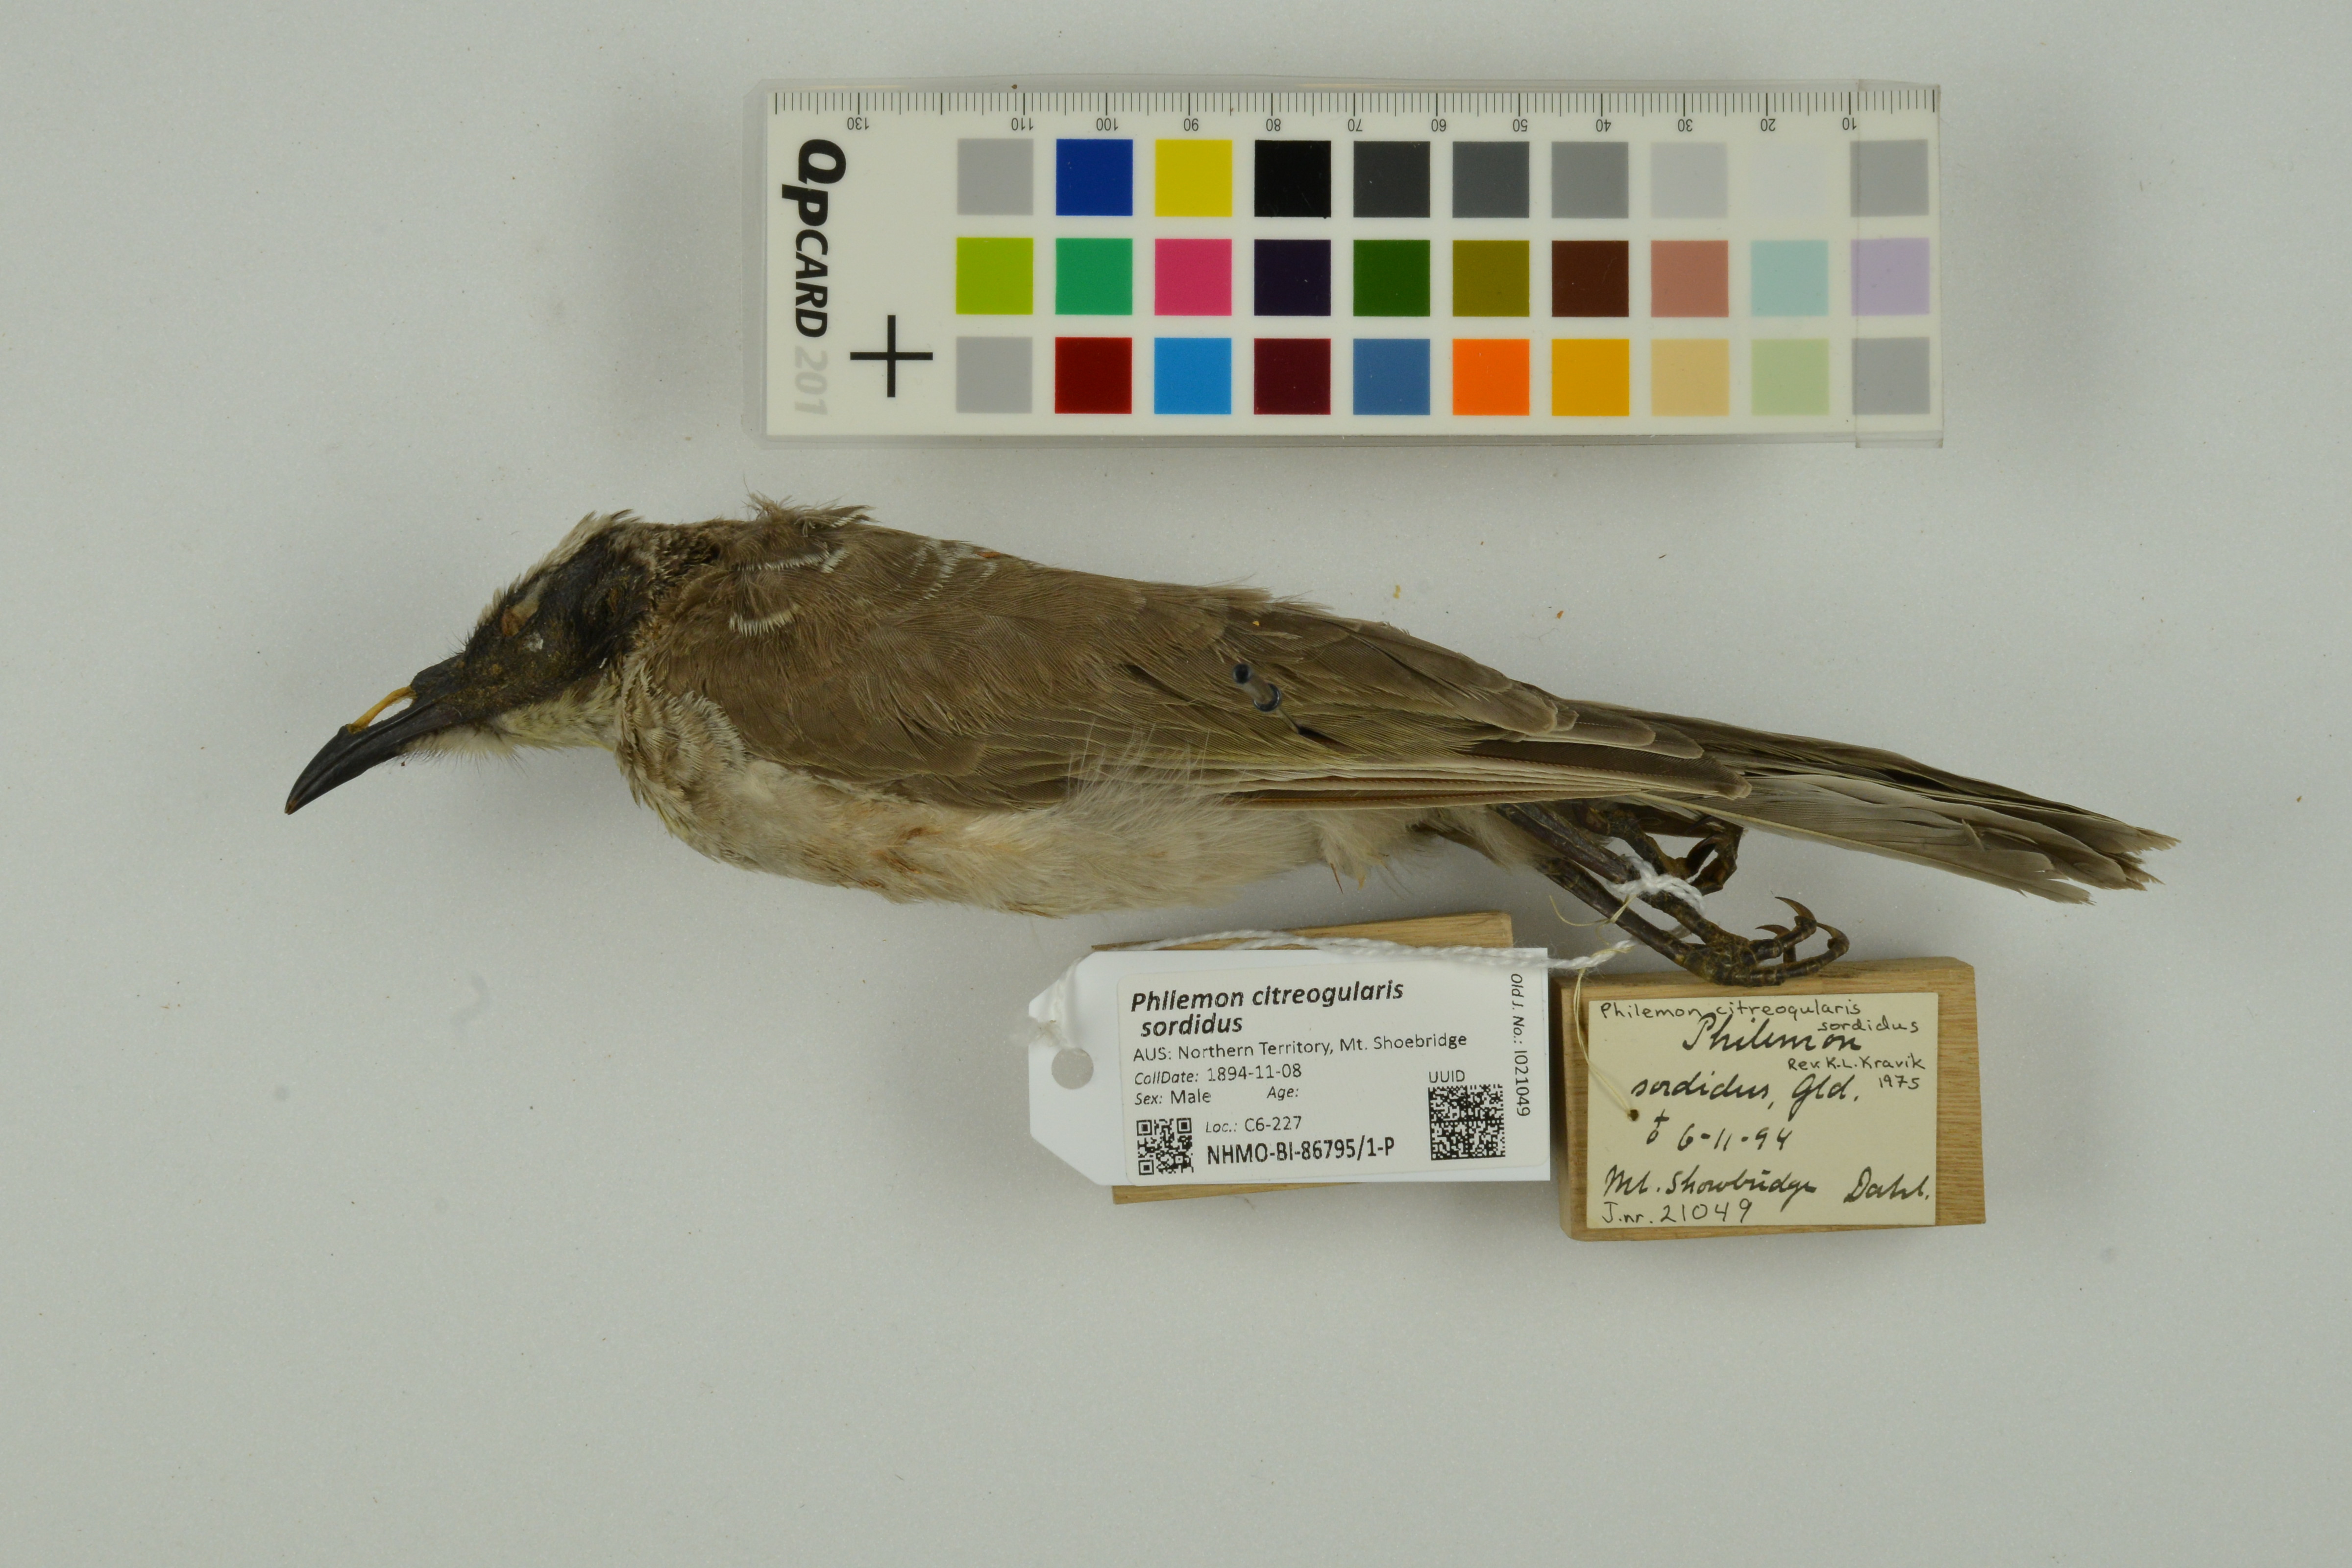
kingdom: Animalia
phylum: Chordata
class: Aves
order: Passeriformes
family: Meliphagidae
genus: Philemon
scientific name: Philemon citreogularis
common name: Little friarbird
